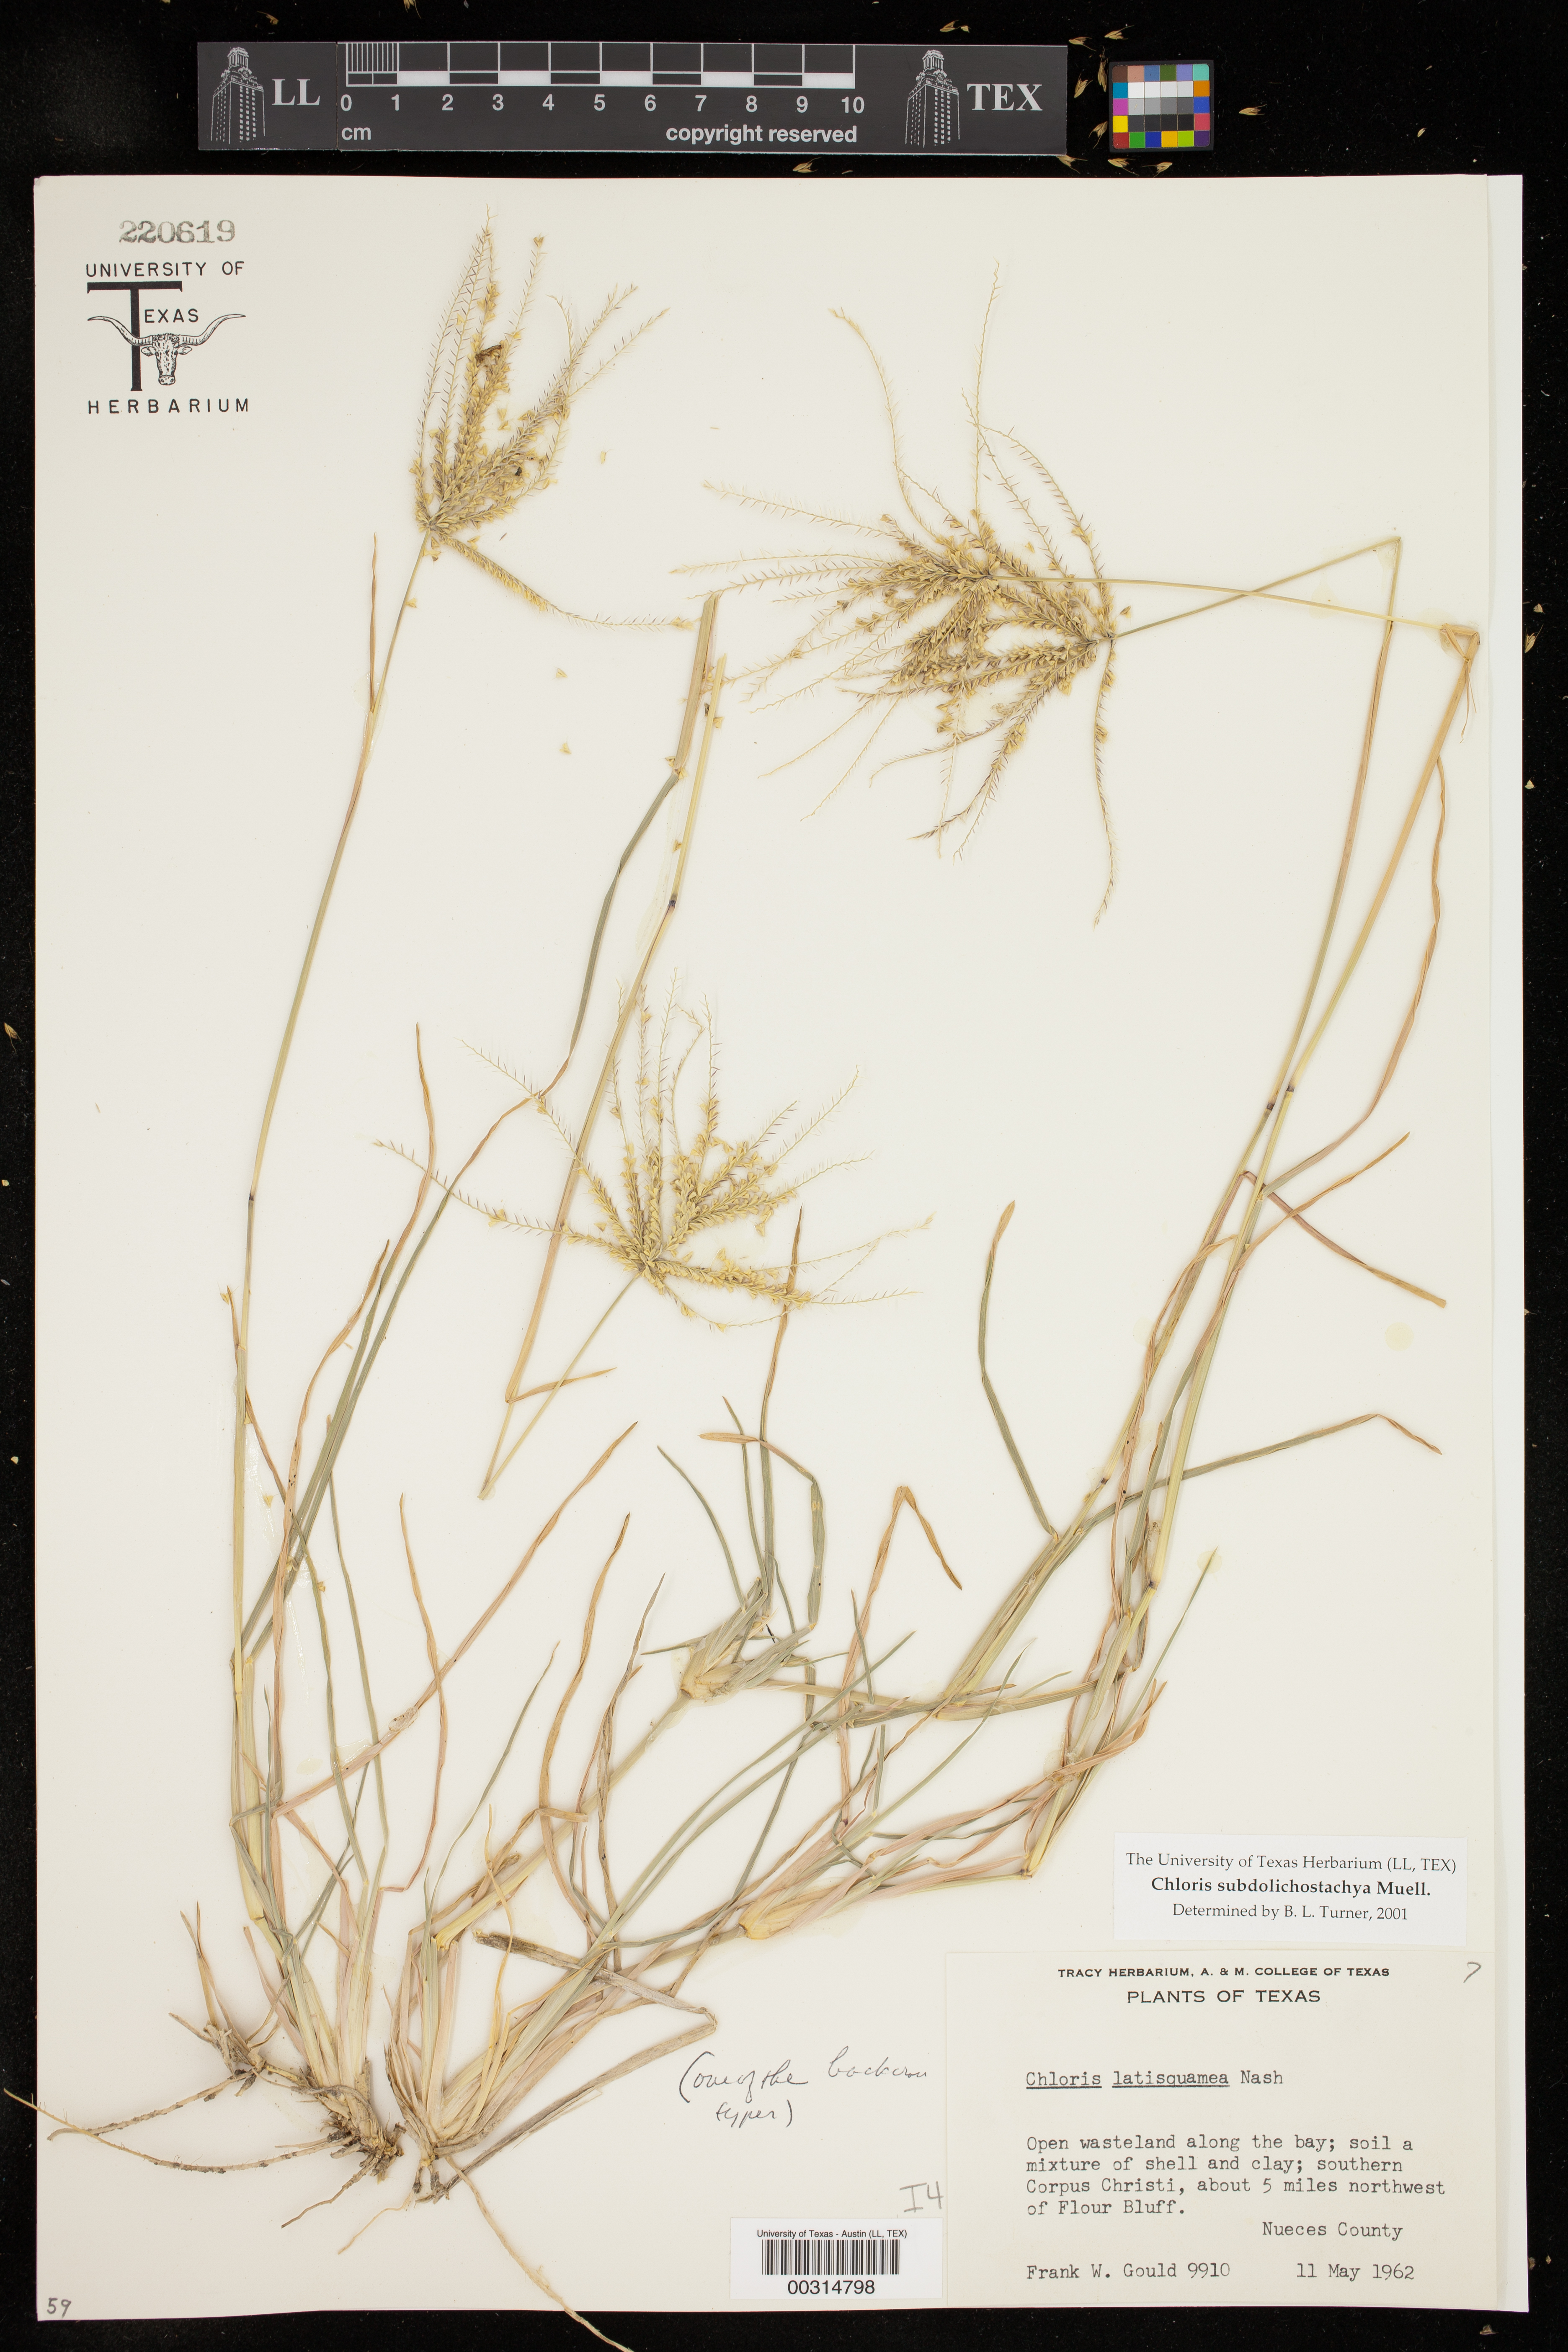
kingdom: Plantae
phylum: Tracheophyta
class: Liliopsida
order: Poales
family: Poaceae
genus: Chloris
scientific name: Chloris subdolichostachya
